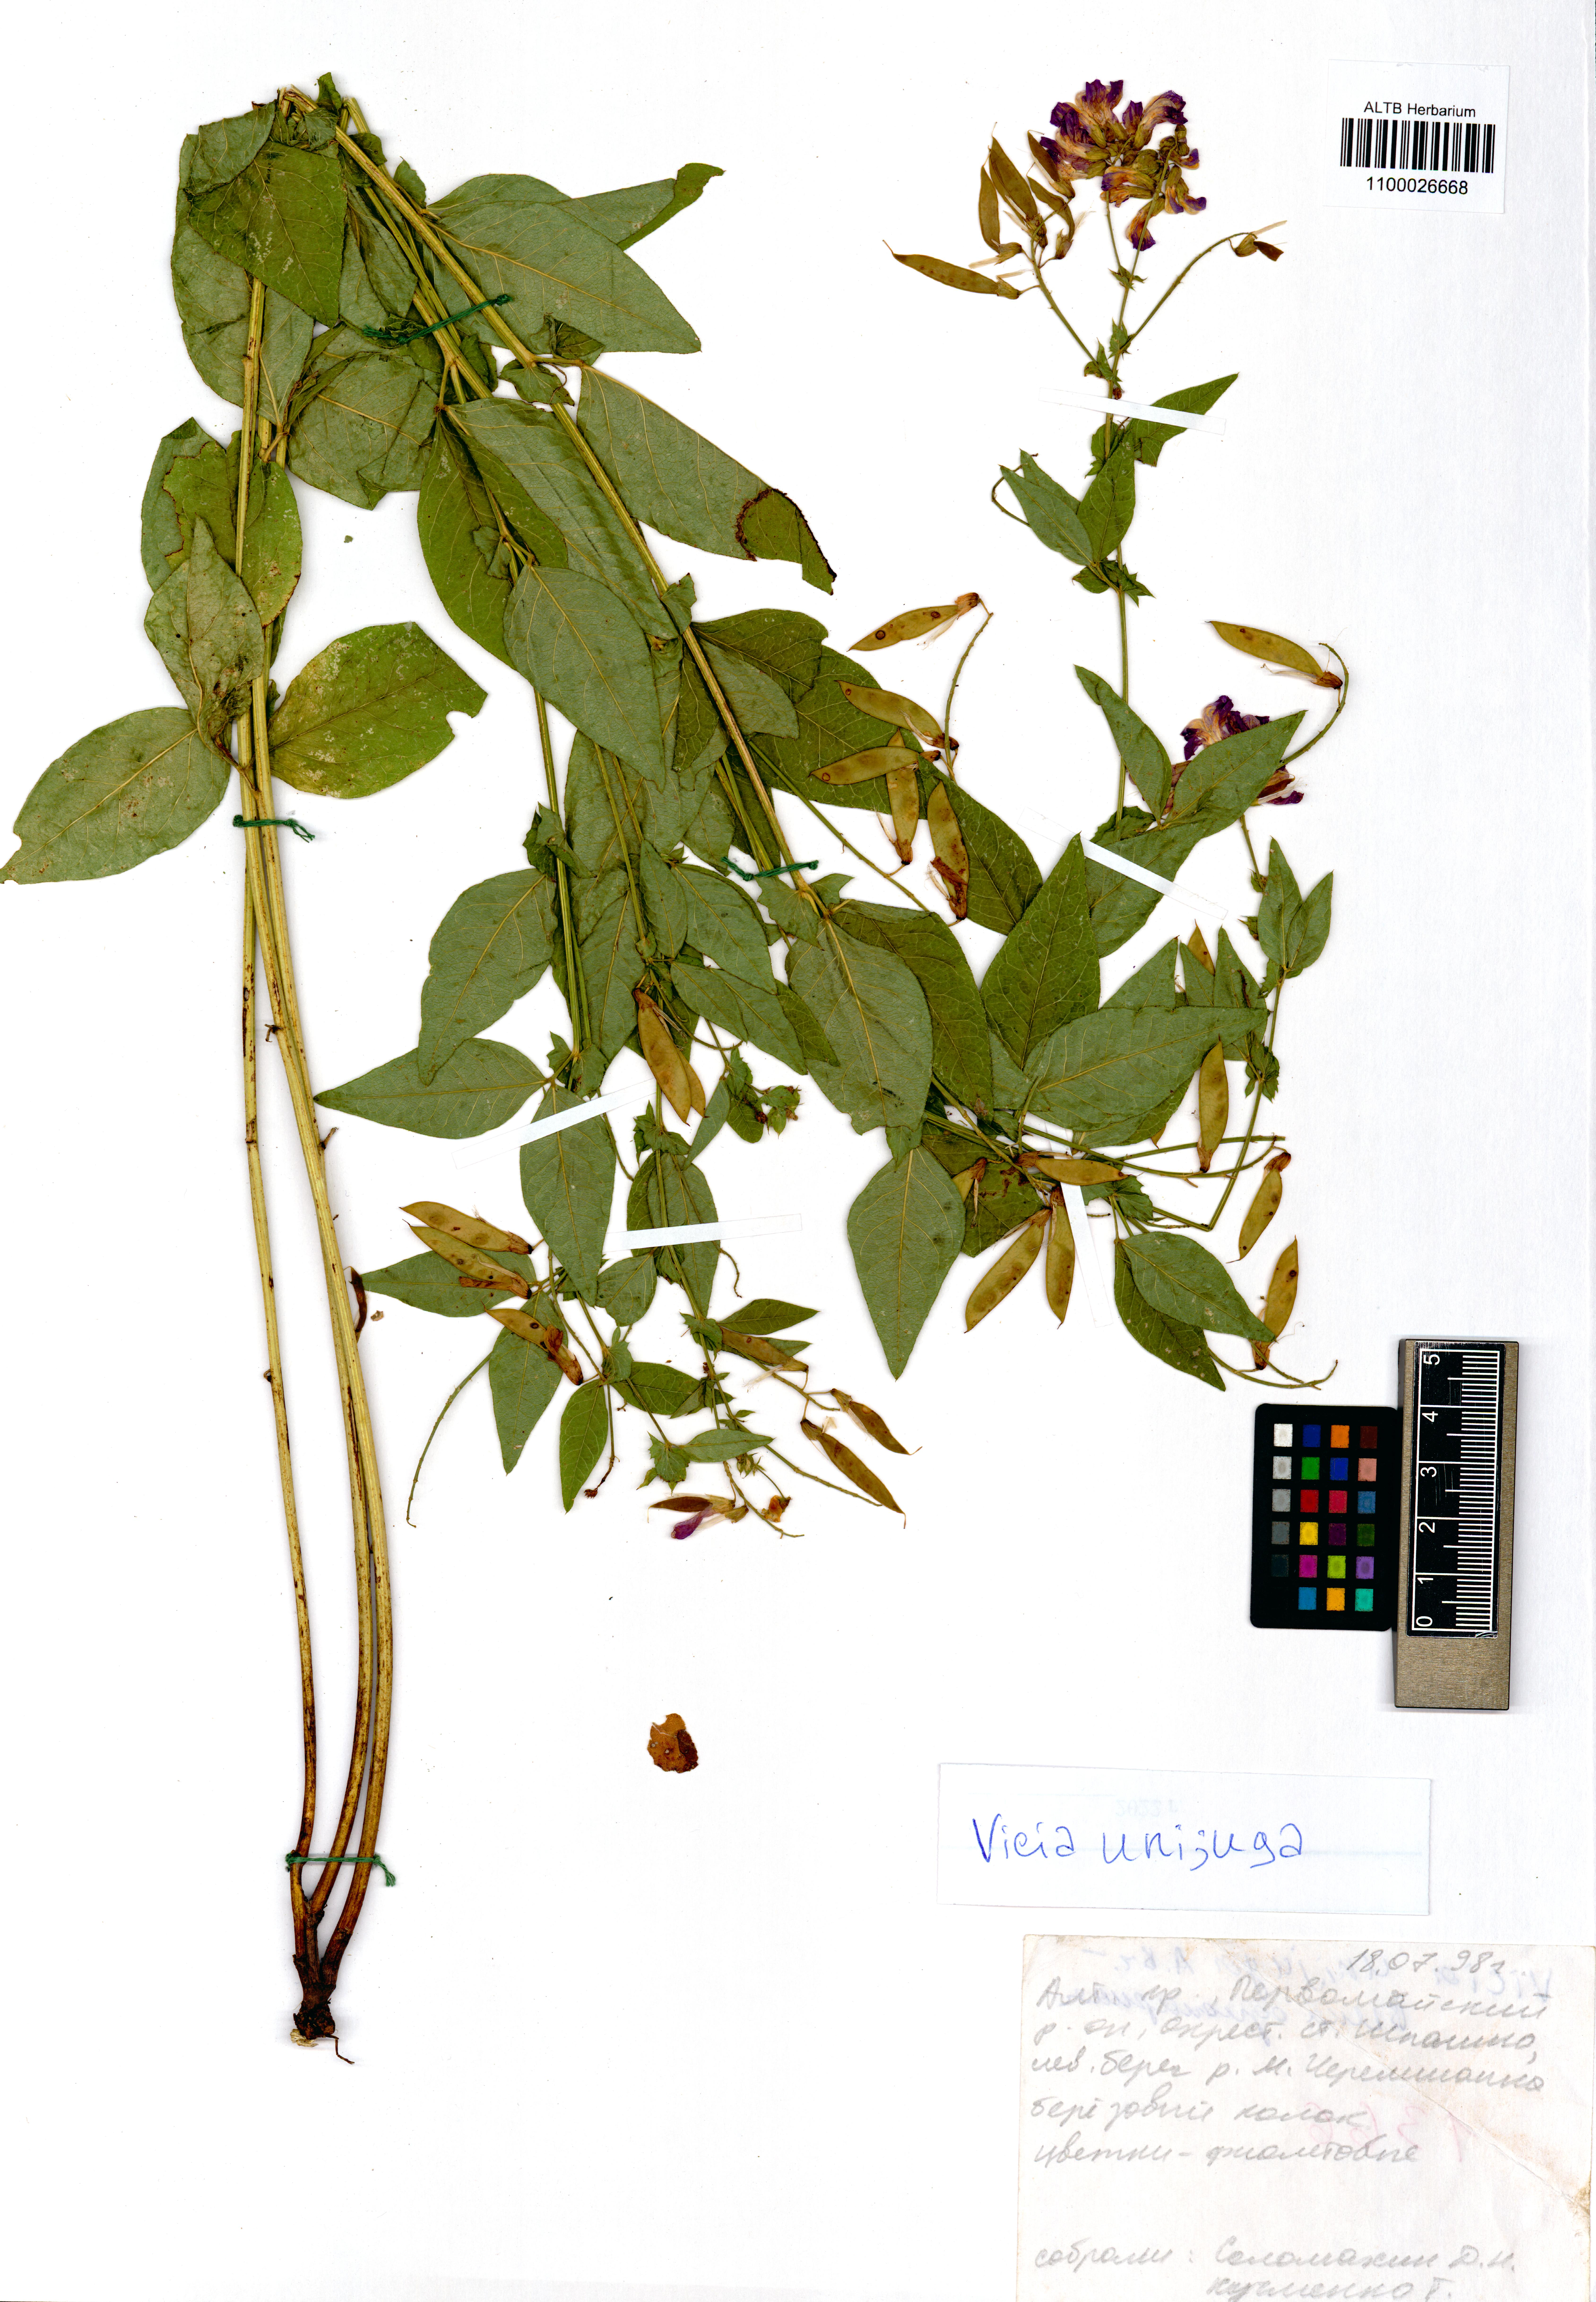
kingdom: Plantae
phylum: Tracheophyta
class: Magnoliopsida
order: Fabales
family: Fabaceae
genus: Vicia
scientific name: Vicia unijuga
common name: Two-leaf vetch
